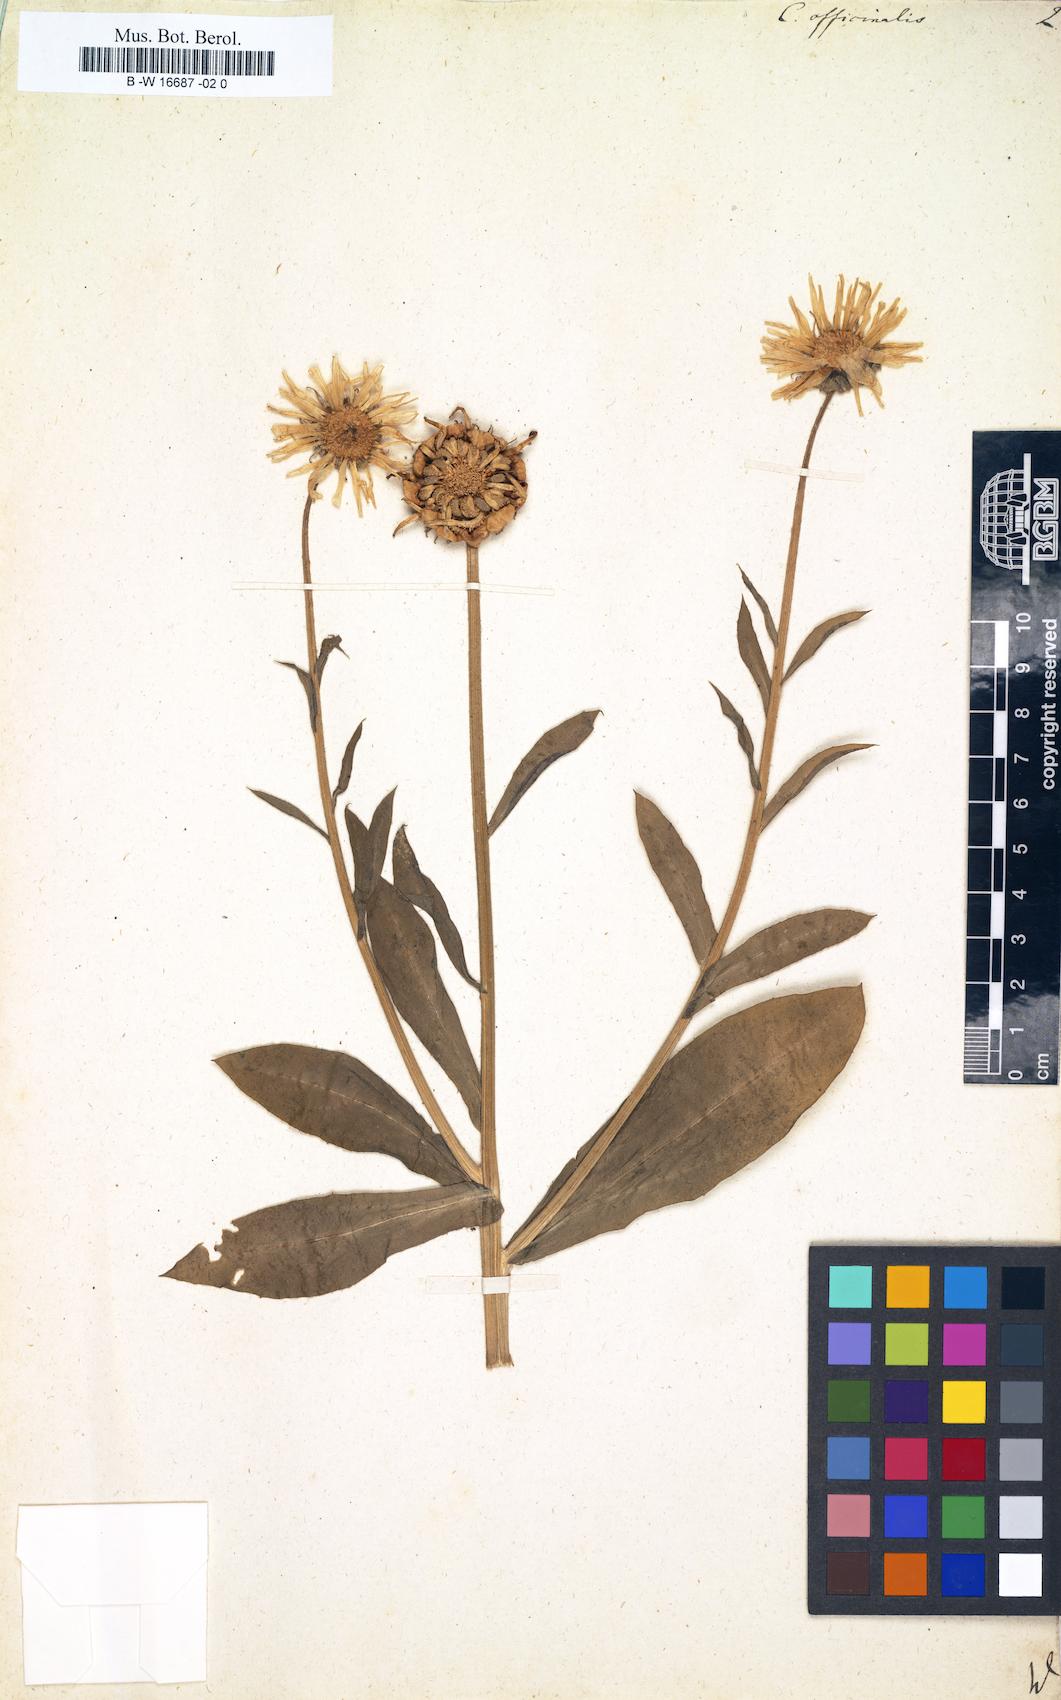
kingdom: Plantae
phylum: Tracheophyta
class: Magnoliopsida
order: Asterales
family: Asteraceae
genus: Calendula
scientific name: Calendula officinalis
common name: Pot marigold
